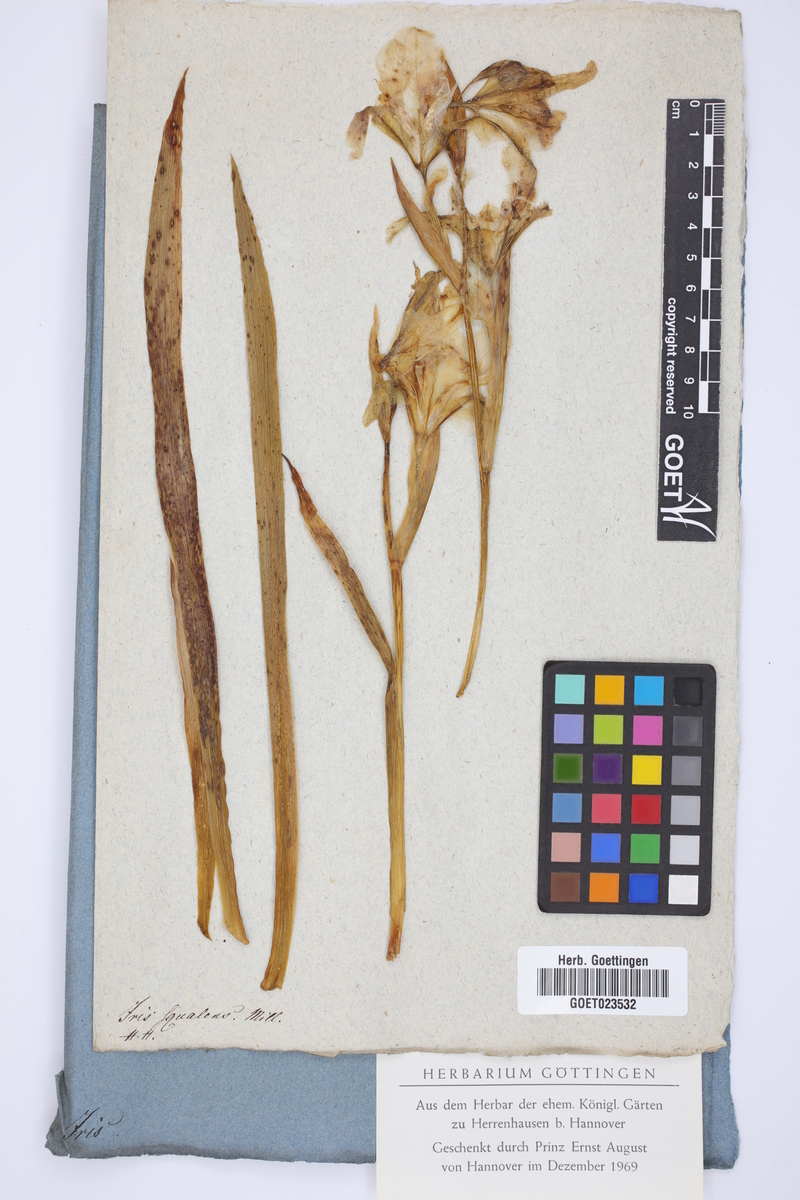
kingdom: Plantae
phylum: Tracheophyta
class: Liliopsida
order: Asparagales
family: Iridaceae
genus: Iris
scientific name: Iris germanica
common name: German iris
